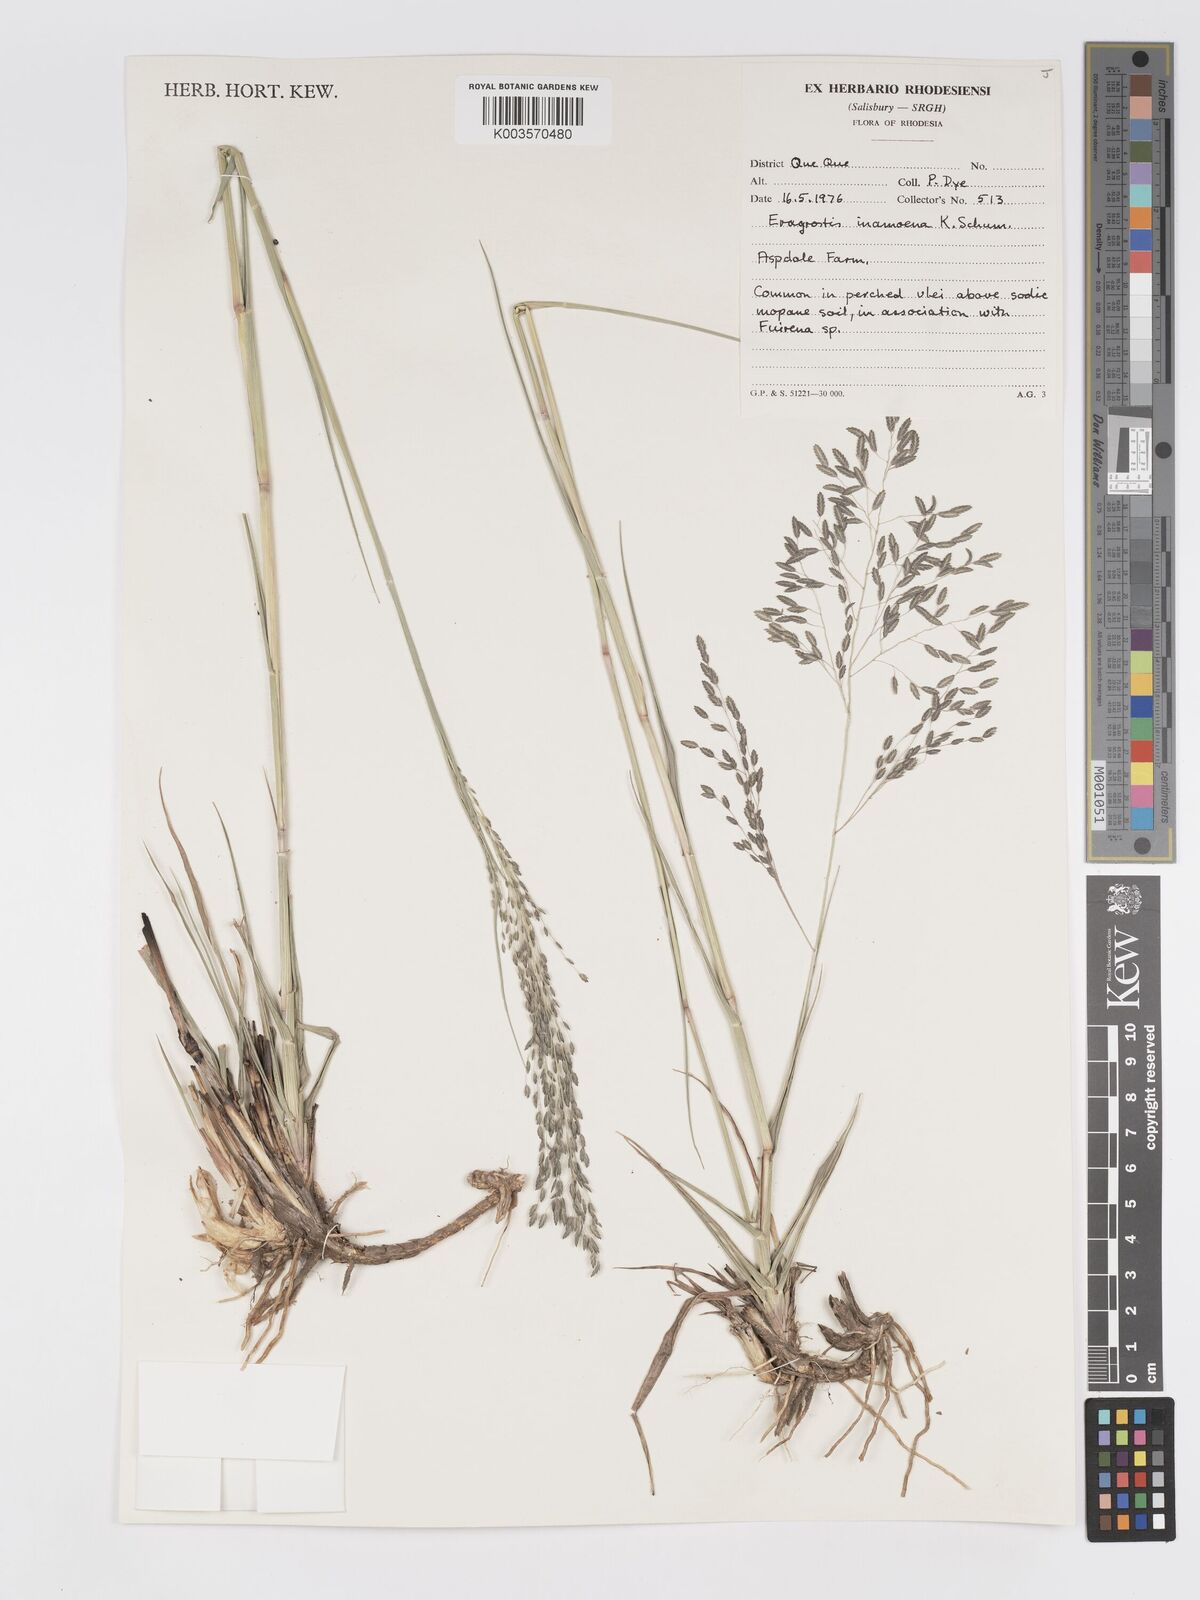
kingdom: Plantae
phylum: Tracheophyta
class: Liliopsida
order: Poales
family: Poaceae
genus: Eragrostis
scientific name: Eragrostis inamoena
